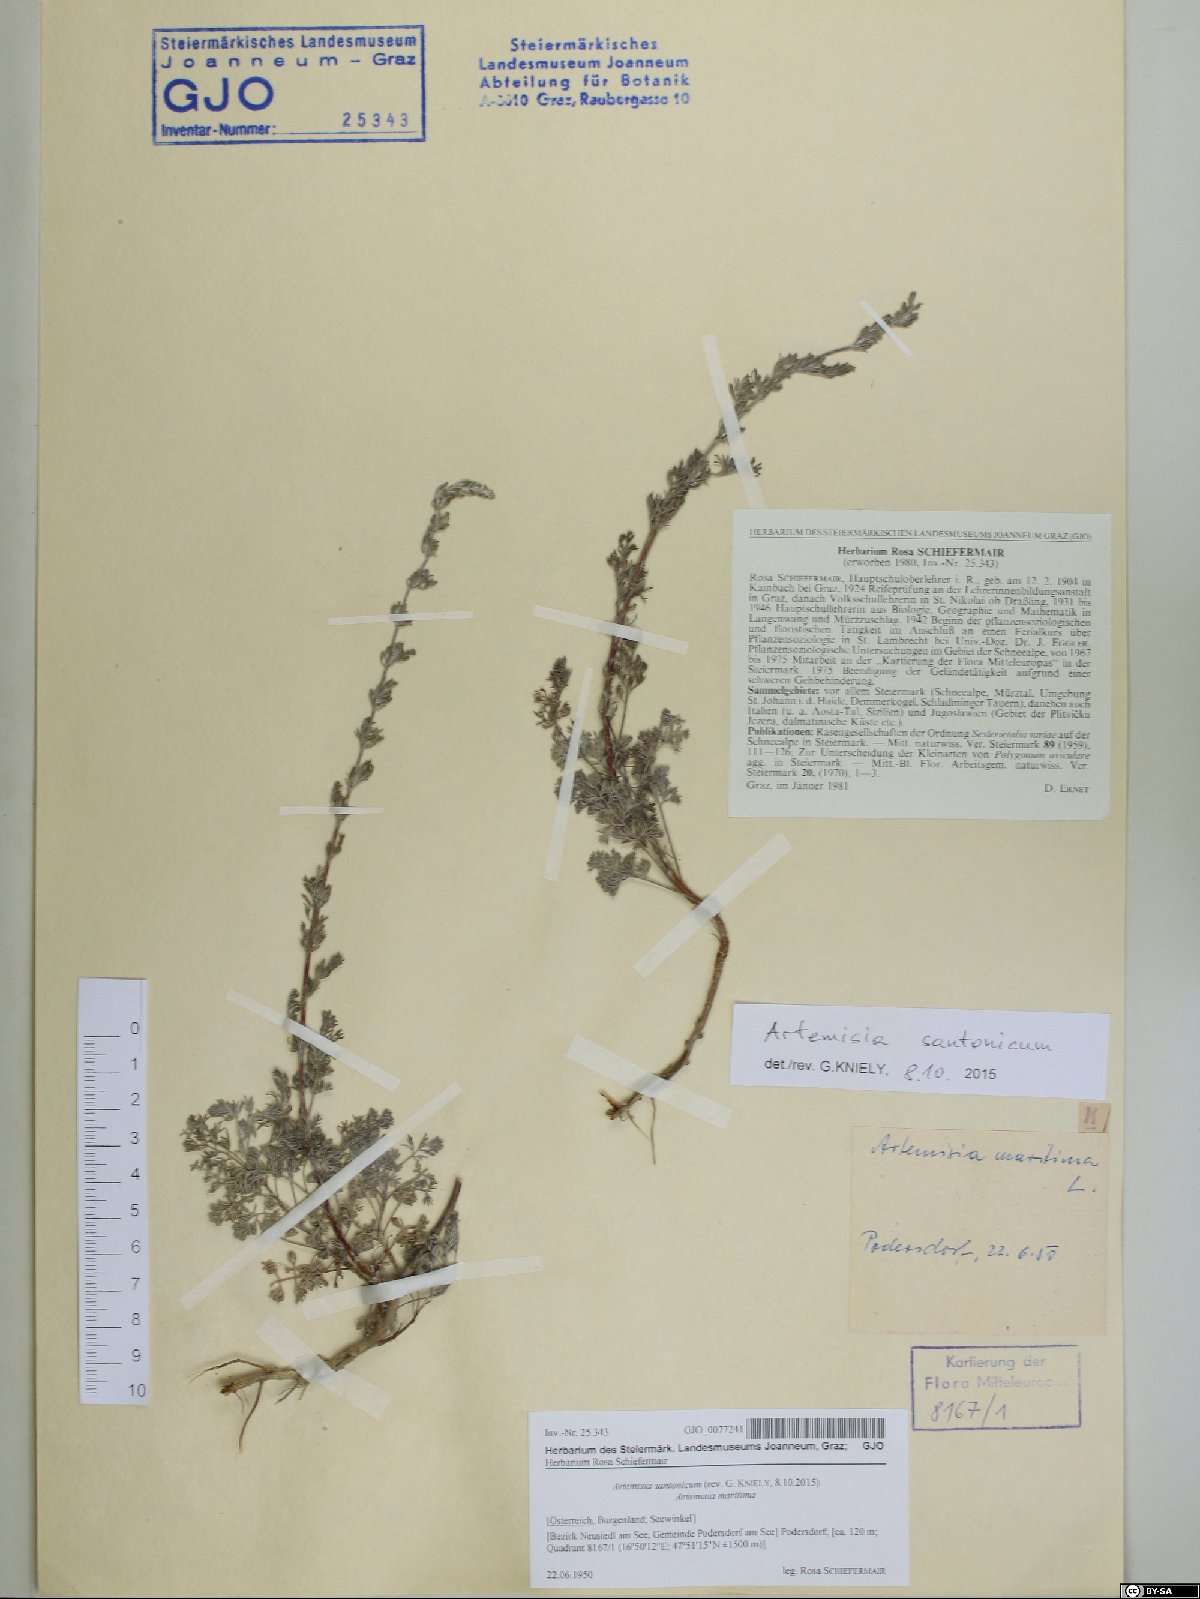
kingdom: Plantae
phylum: Tracheophyta
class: Magnoliopsida
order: Asterales
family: Asteraceae
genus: Artemisia
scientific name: Artemisia santonicum
